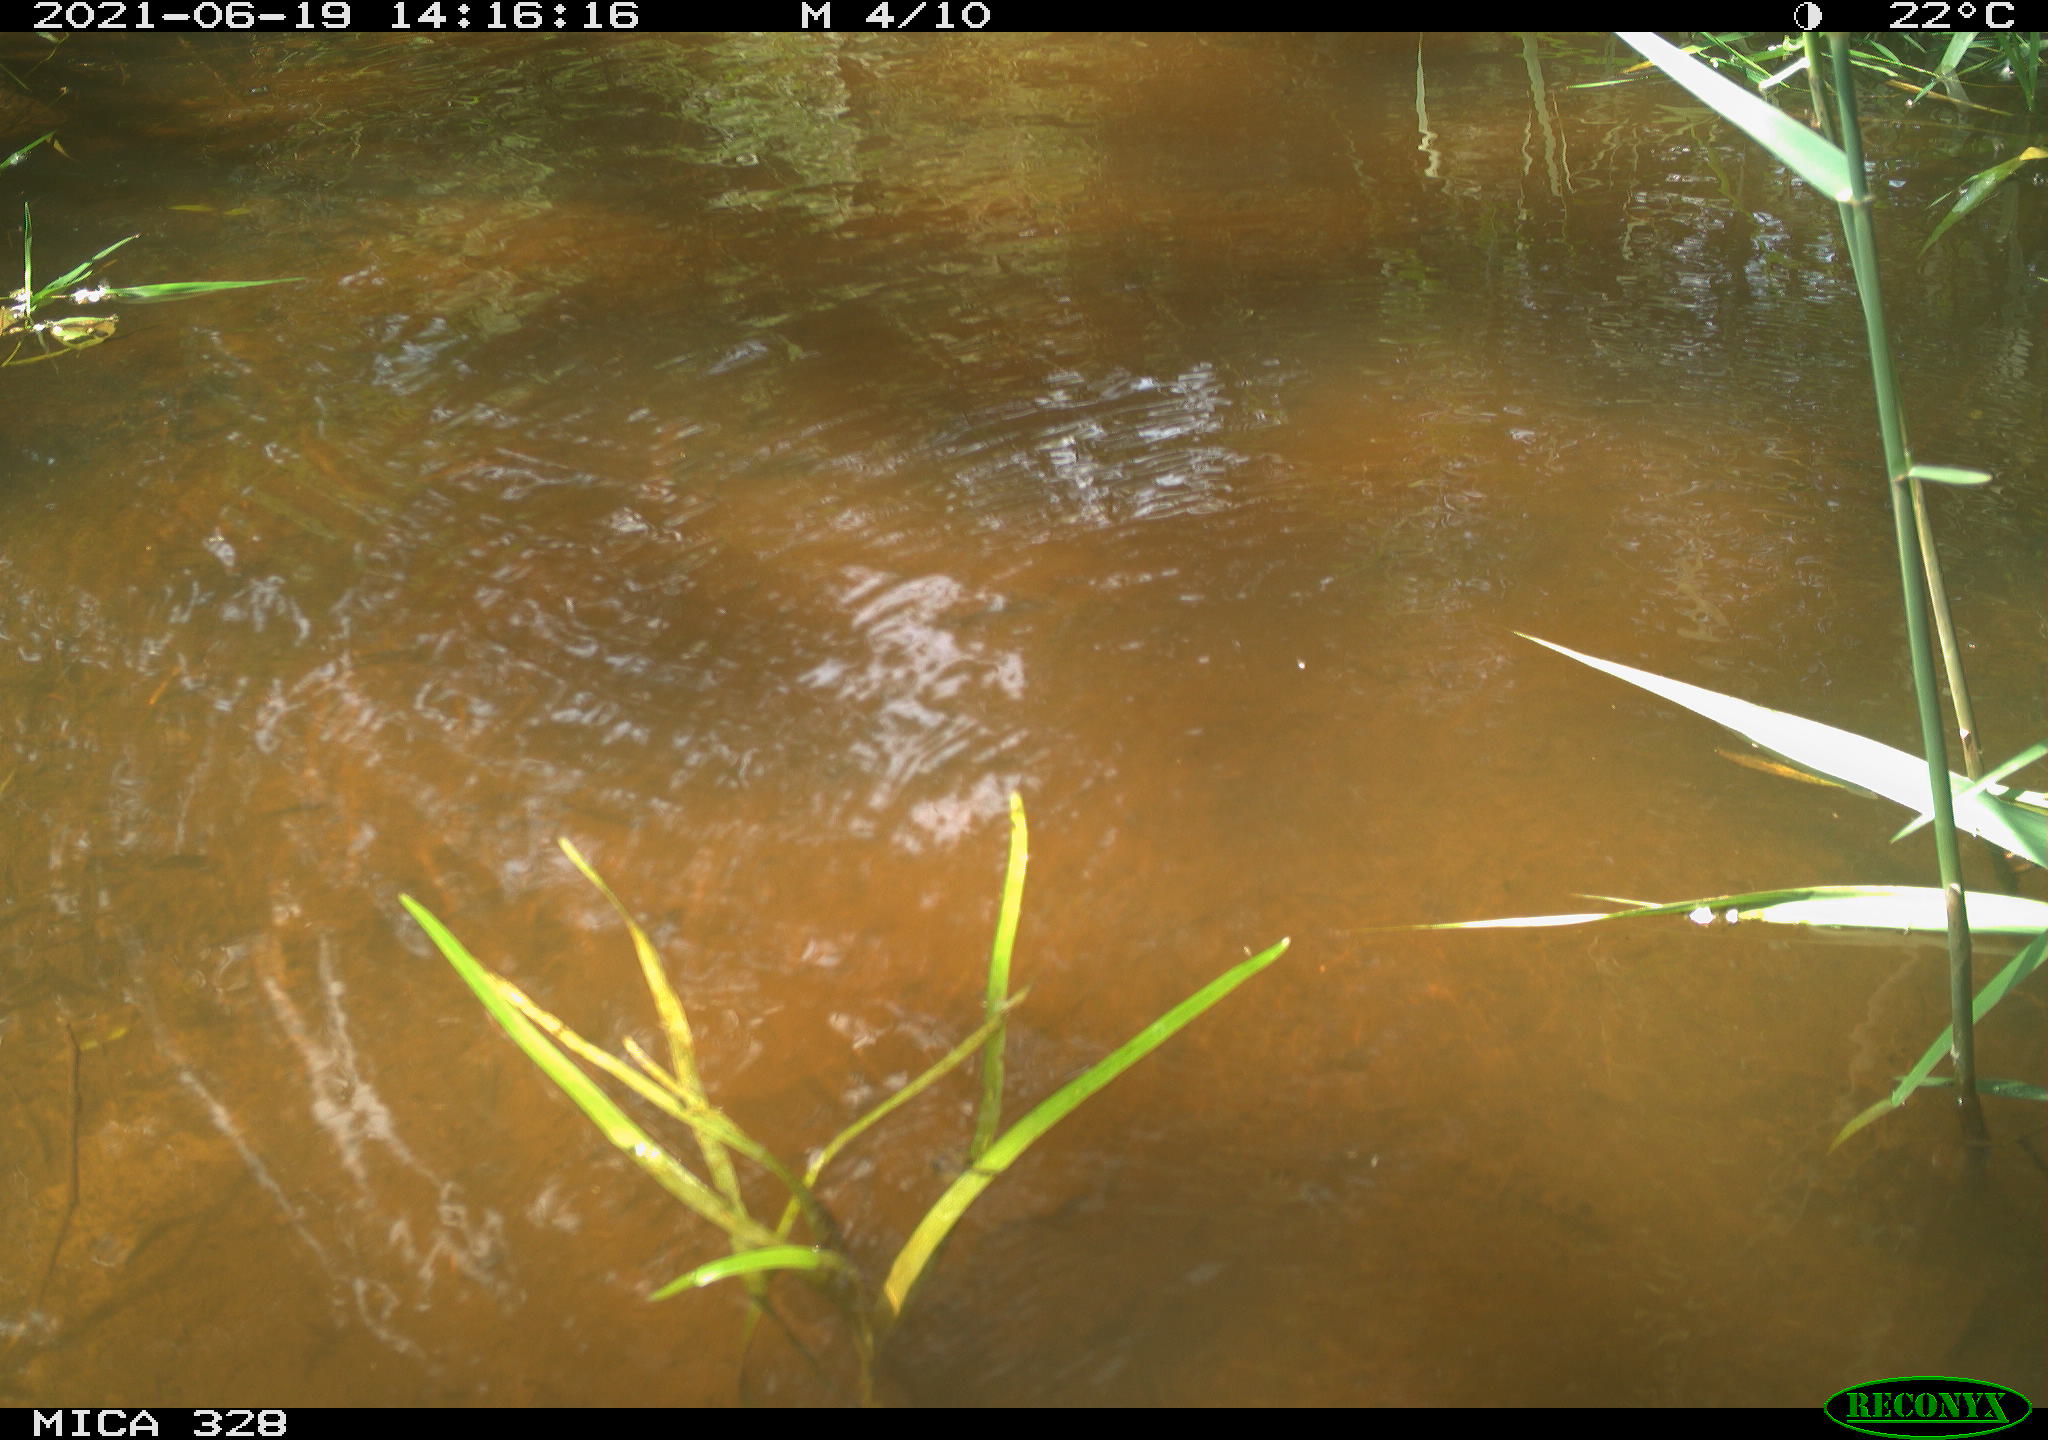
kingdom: Animalia
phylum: Chordata
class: Aves
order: Anseriformes
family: Anatidae
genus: Aix
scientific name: Aix galericulata
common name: Mandarin duck
